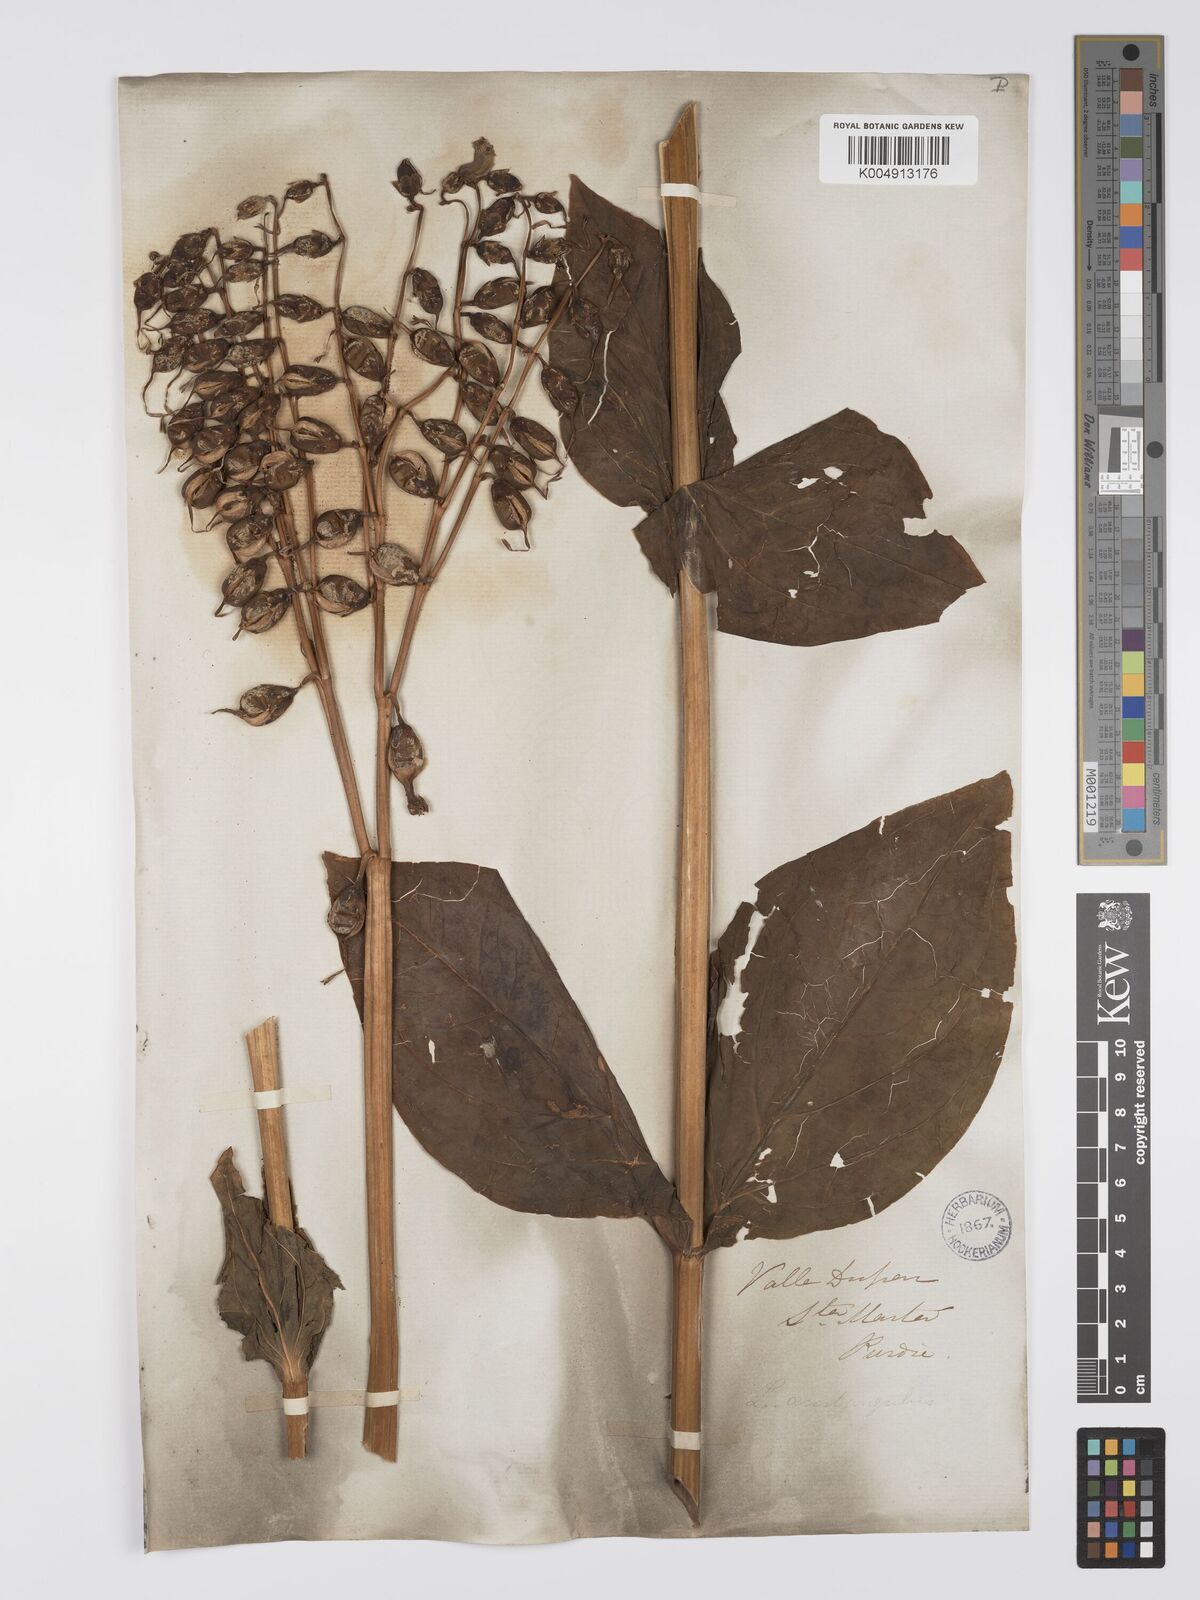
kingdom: Plantae
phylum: Tracheophyta
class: Magnoliopsida
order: Gentianales
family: Gentianaceae
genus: Chelonanthus
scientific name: Chelonanthus alatus
